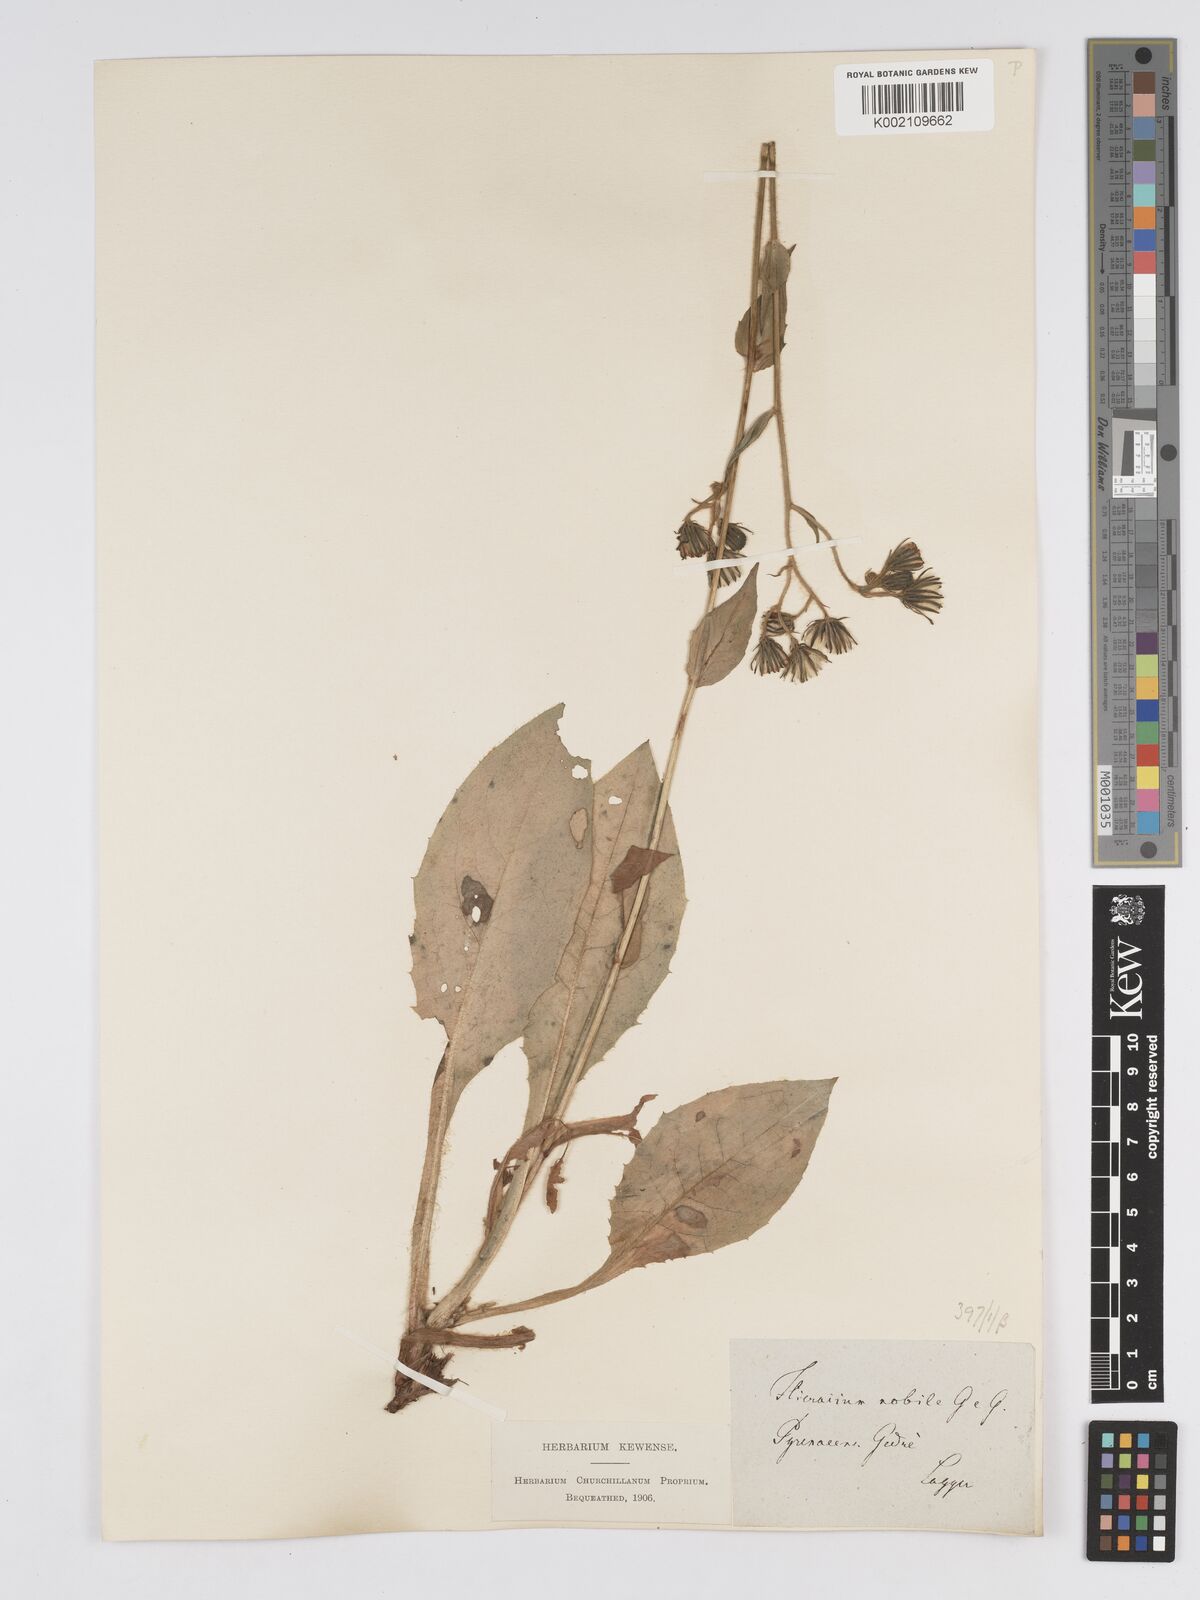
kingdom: Plantae
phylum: Tracheophyta
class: Magnoliopsida
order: Asterales
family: Asteraceae
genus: Hieracium
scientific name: Hieracium nobile
